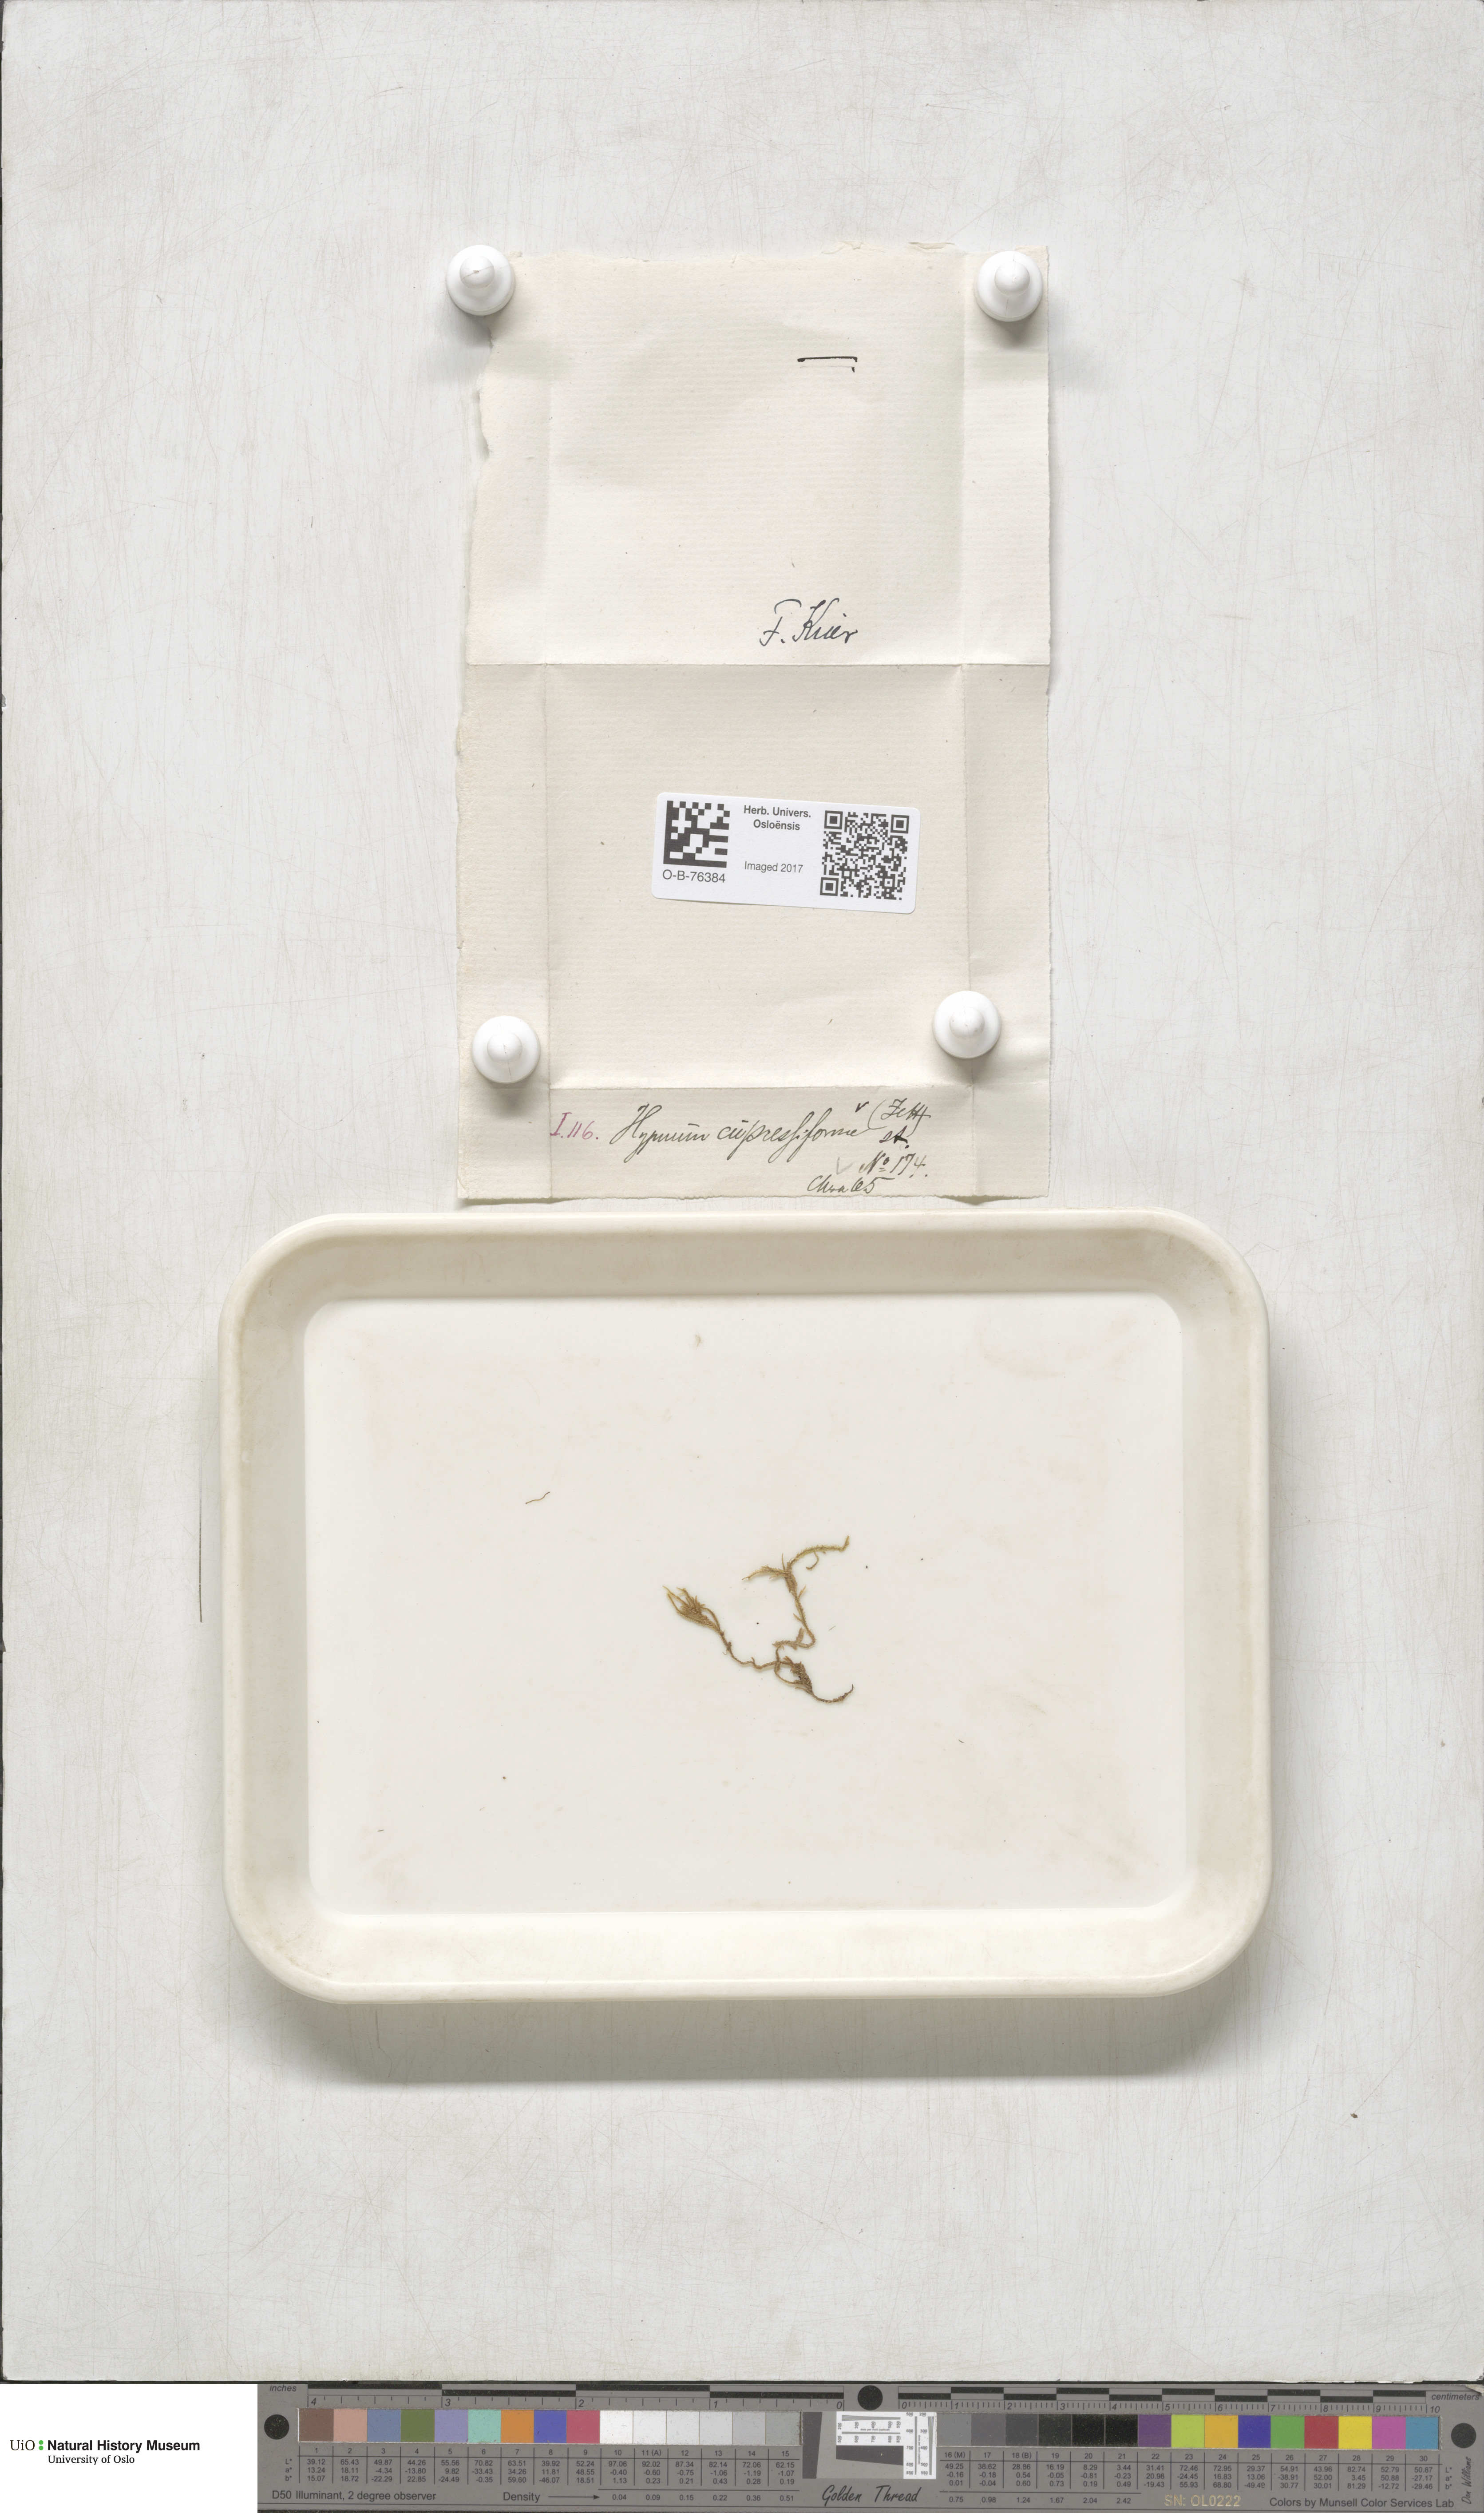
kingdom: Plantae
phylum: Bryophyta
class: Bryopsida
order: Hypnales
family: Hypnaceae
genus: Hypnum
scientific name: Hypnum cupressiforme
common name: Cypress-leaved plait-moss
